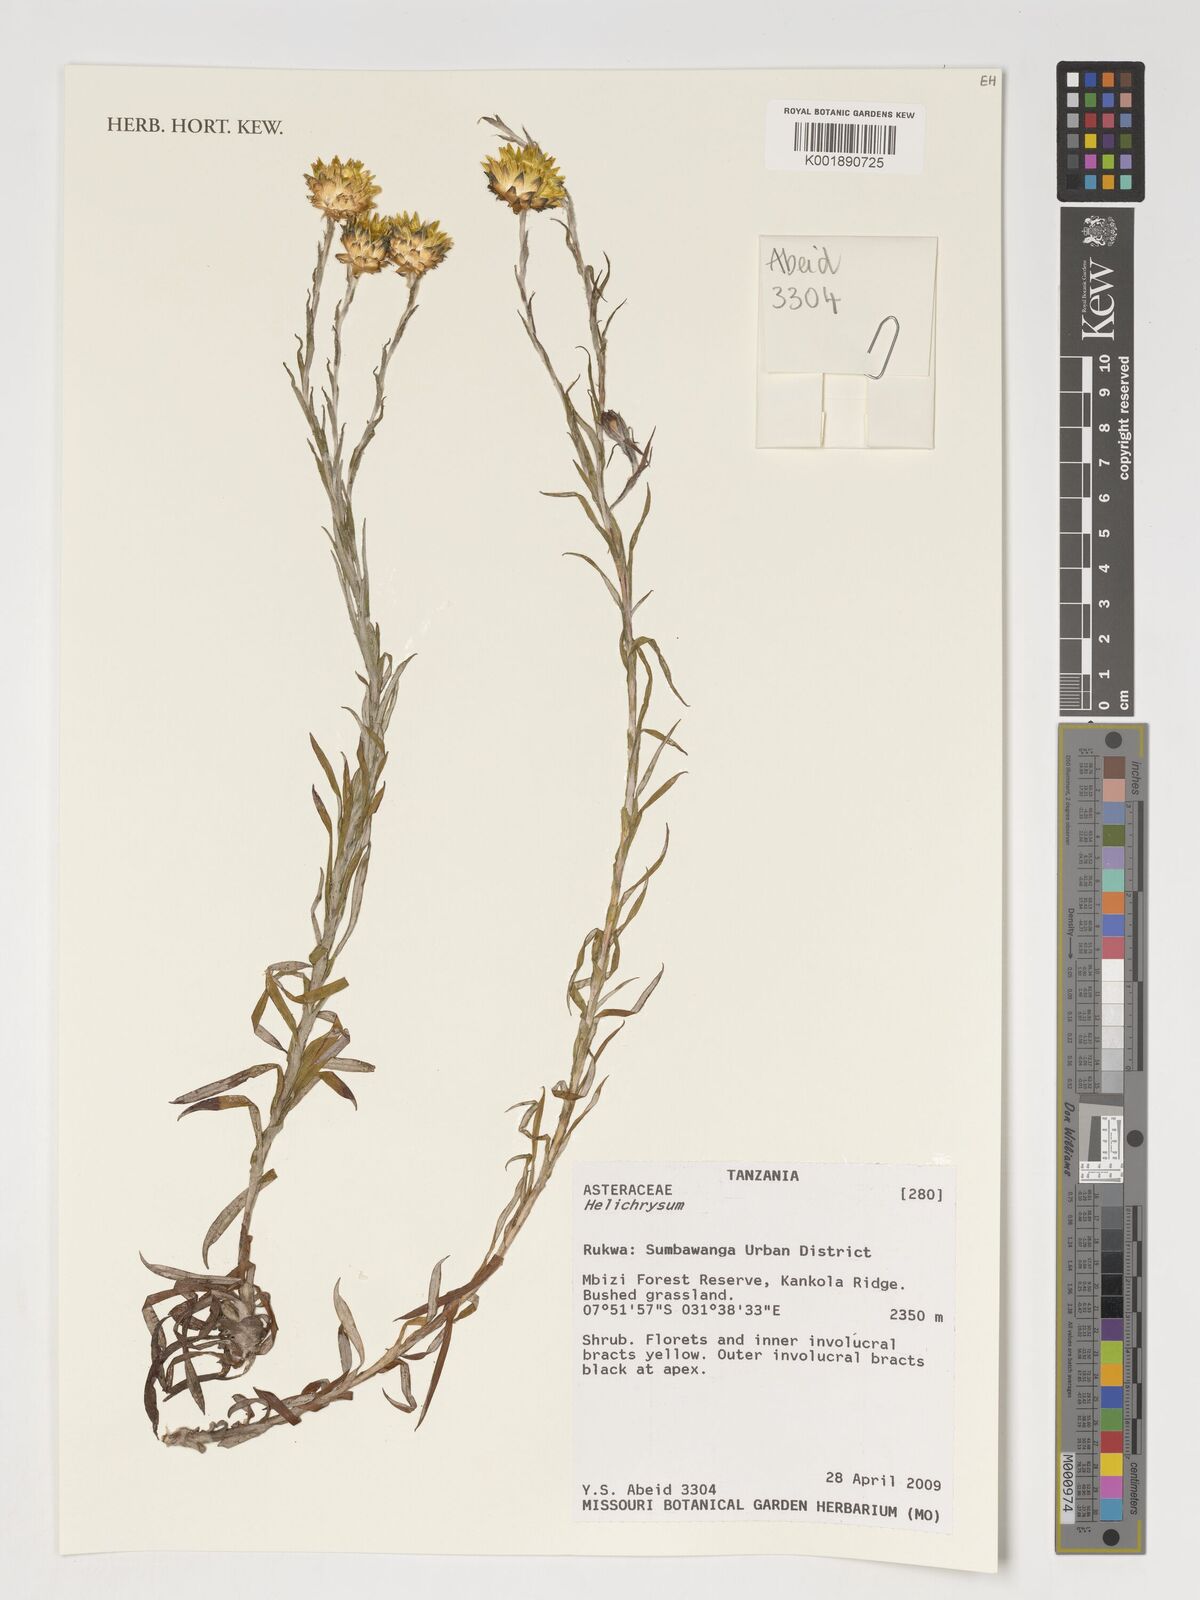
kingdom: Plantae
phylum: Tracheophyta
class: Magnoliopsida
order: Asterales
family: Asteraceae
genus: Helichrysum
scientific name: Helichrysum
